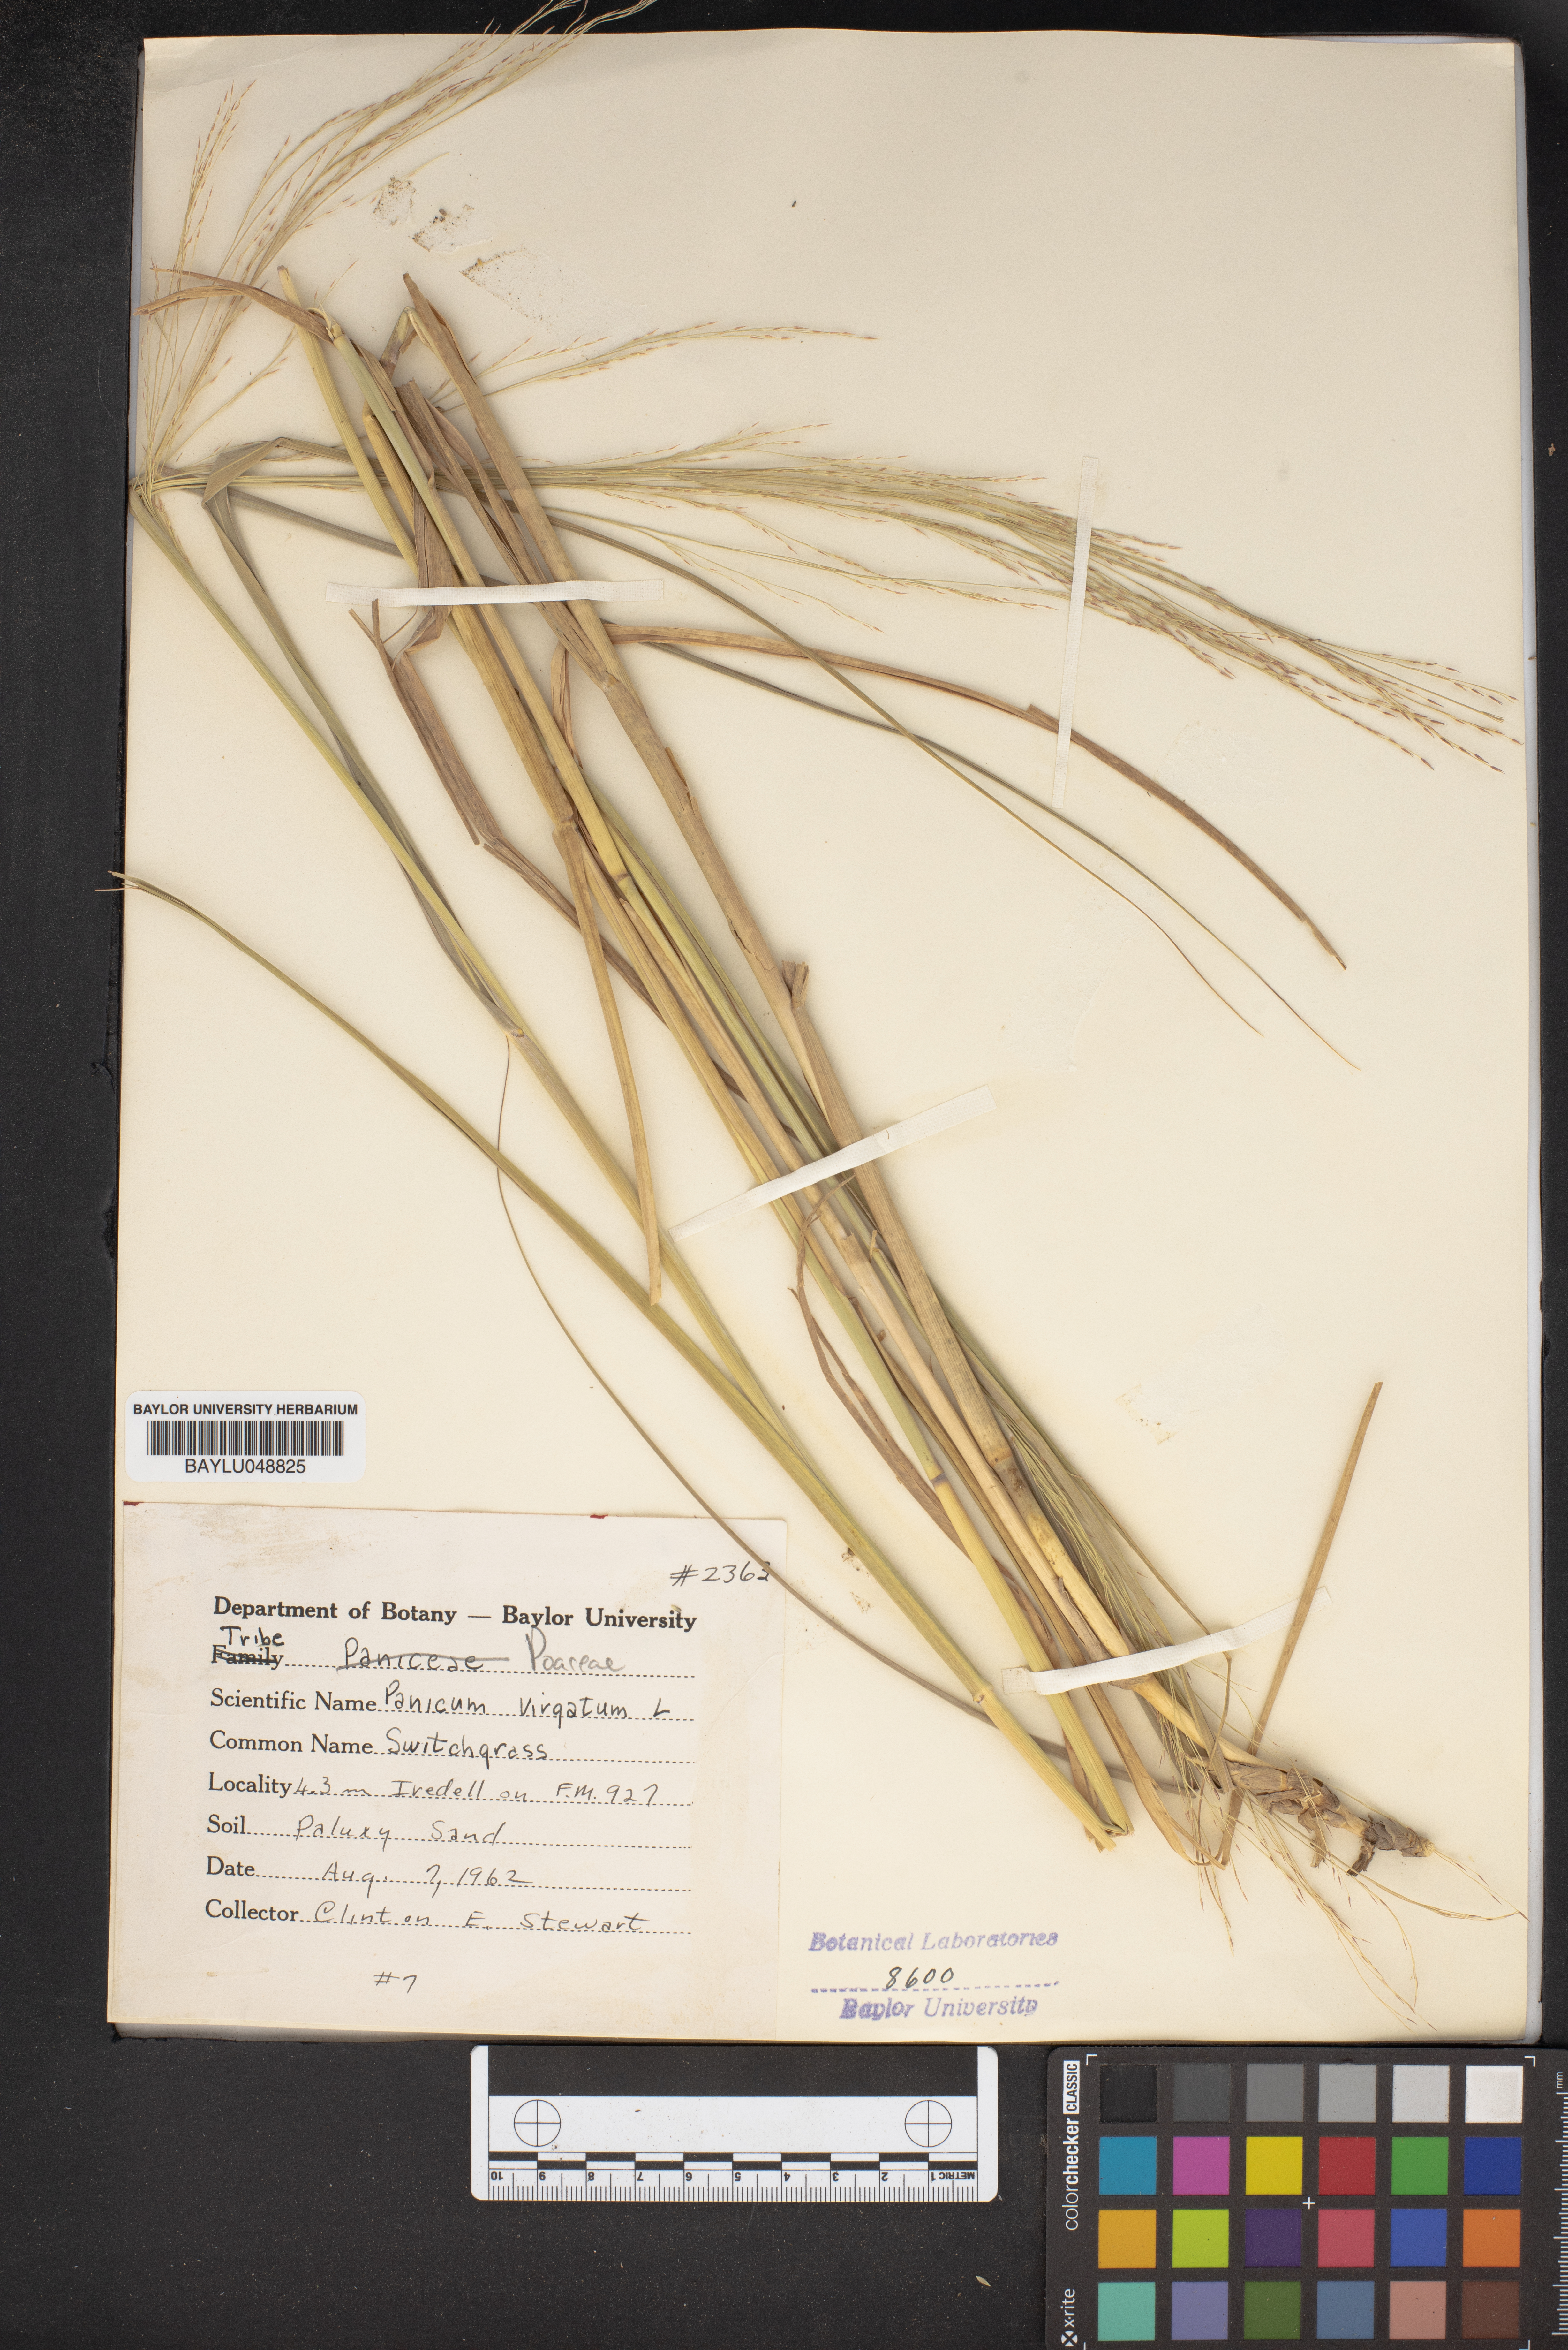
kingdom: Plantae
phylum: Tracheophyta
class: Liliopsida
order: Poales
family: Poaceae
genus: Panicum
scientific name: Panicum virgatum
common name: Switchgrass
